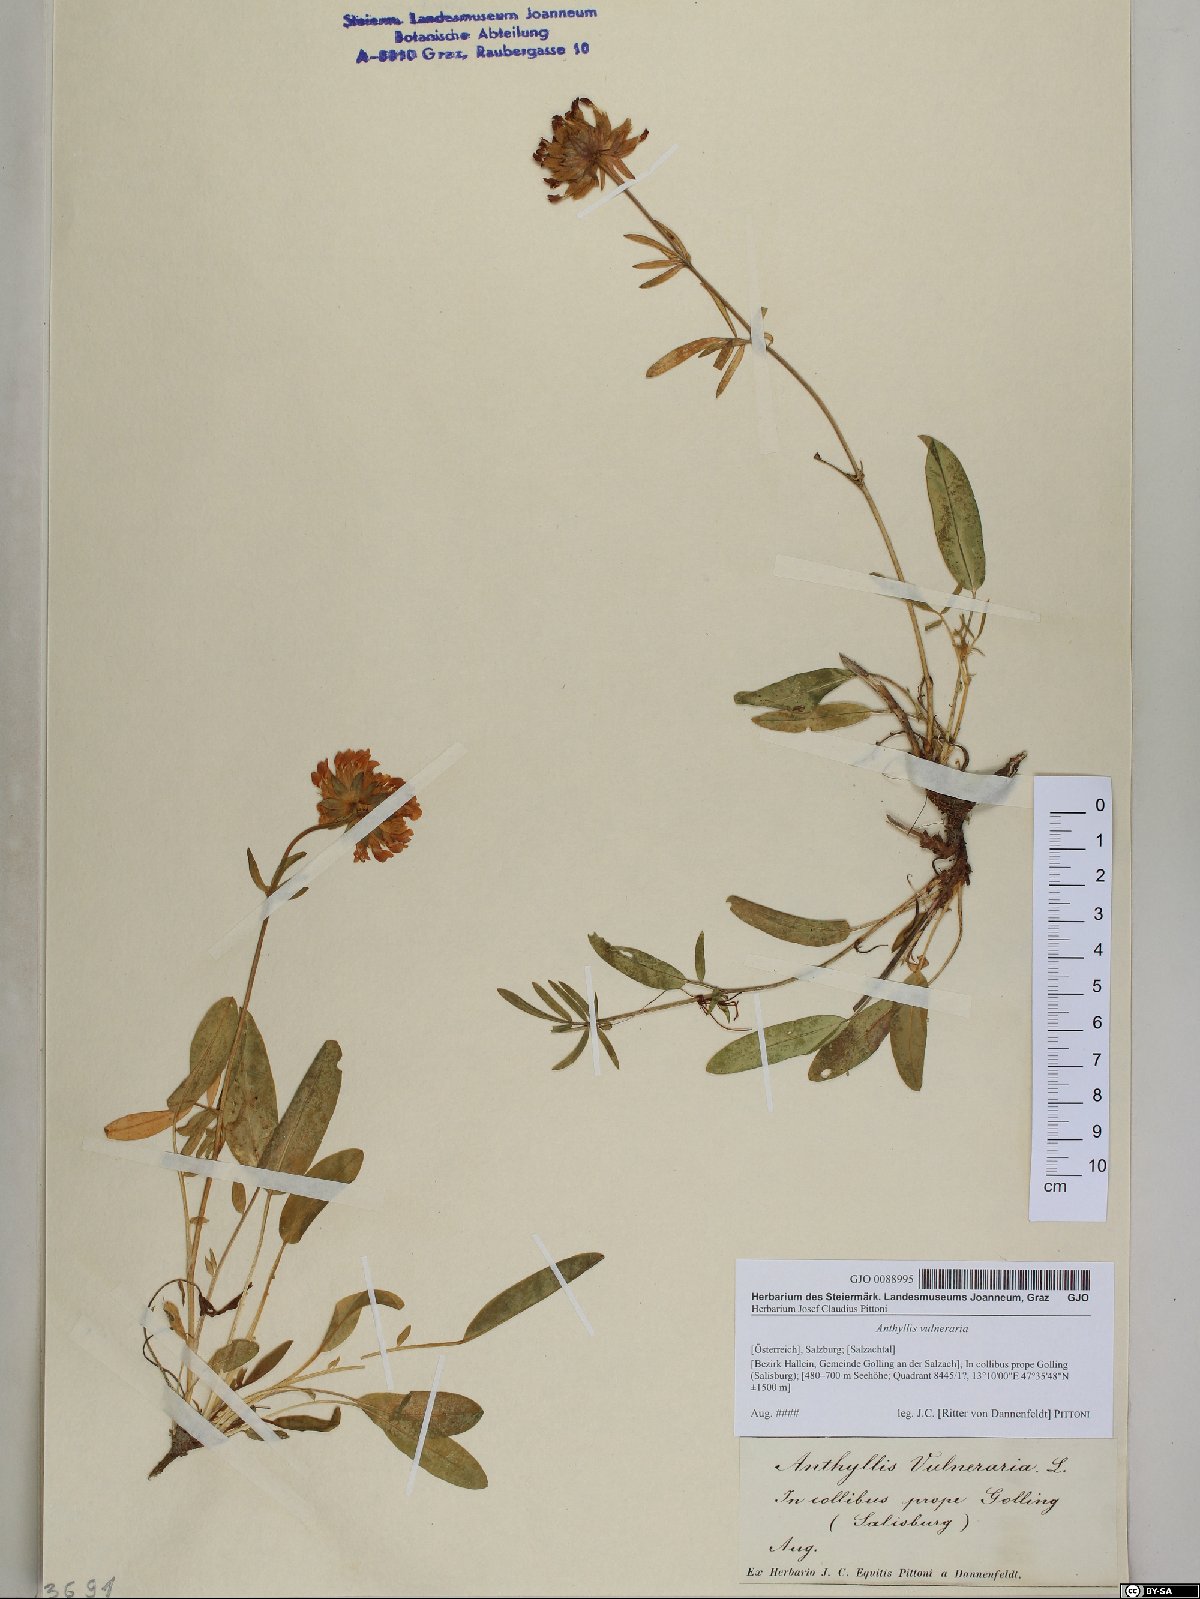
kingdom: Plantae
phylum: Tracheophyta
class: Magnoliopsida
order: Fabales
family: Fabaceae
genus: Anthyllis
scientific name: Anthyllis vulneraria
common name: Kidney vetch
